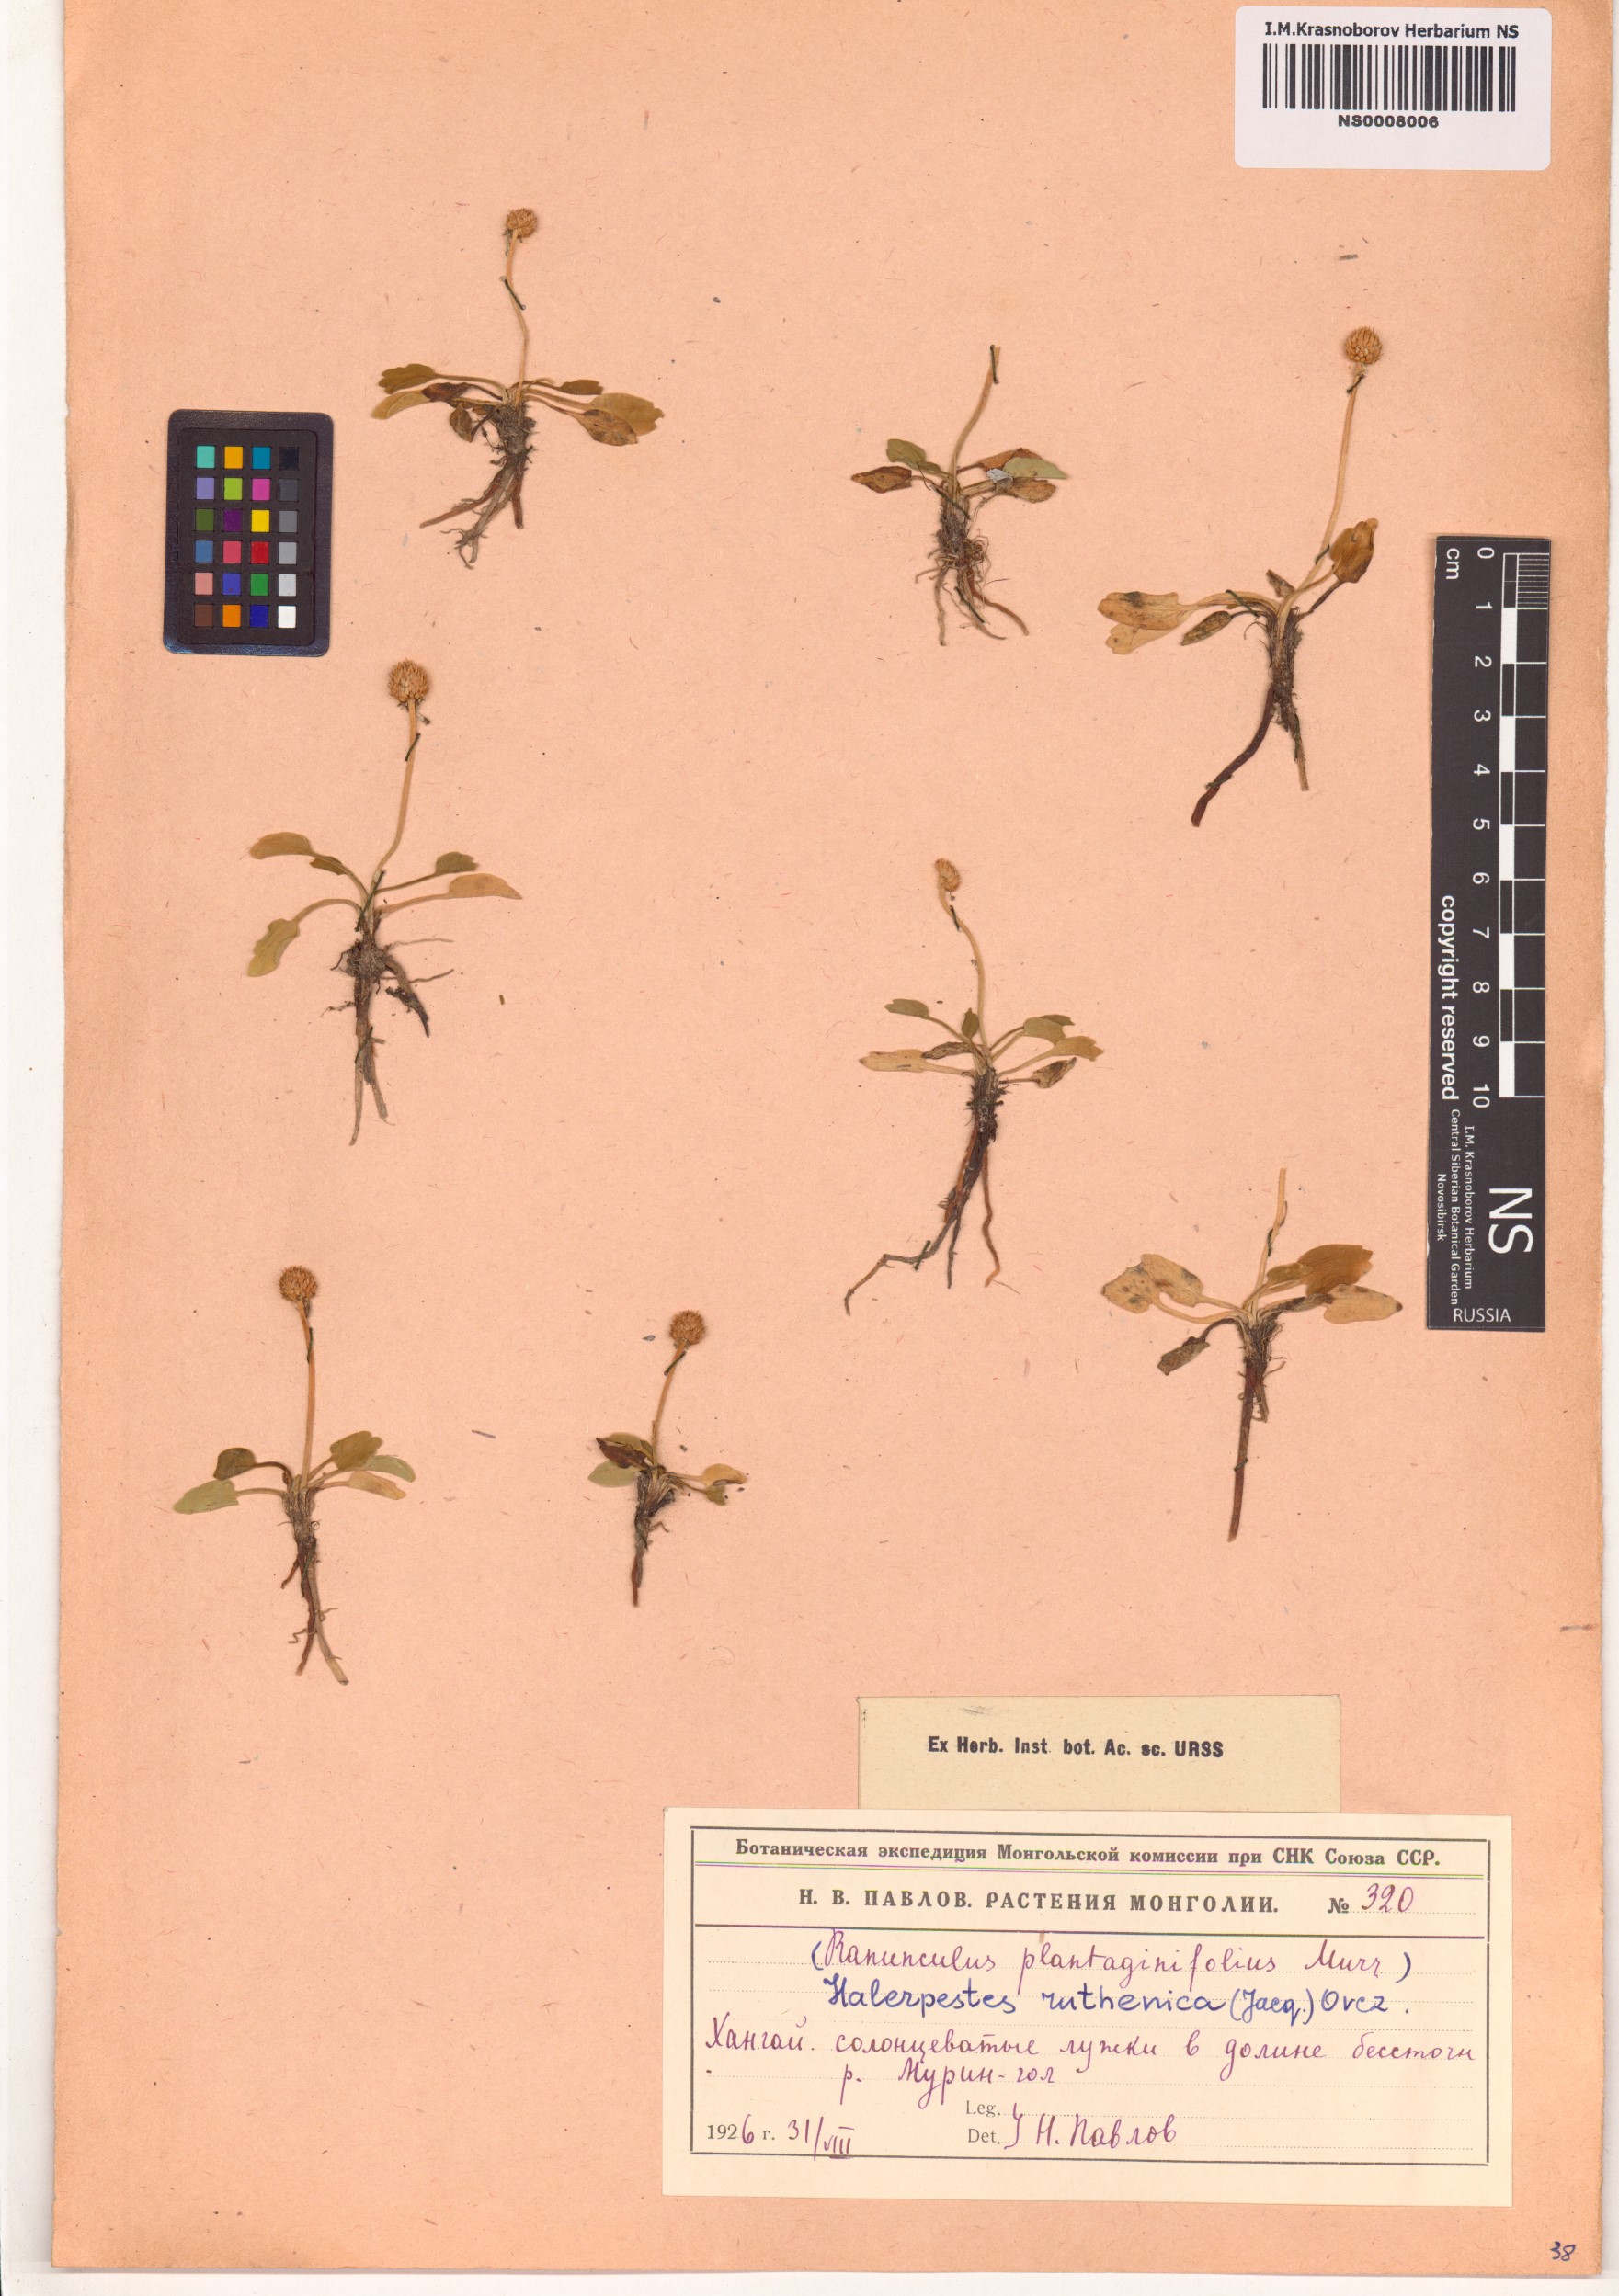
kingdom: Plantae
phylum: Tracheophyta
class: Magnoliopsida
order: Ranunculales
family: Ranunculaceae
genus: Halerpestes
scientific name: Halerpestes ruthenica
